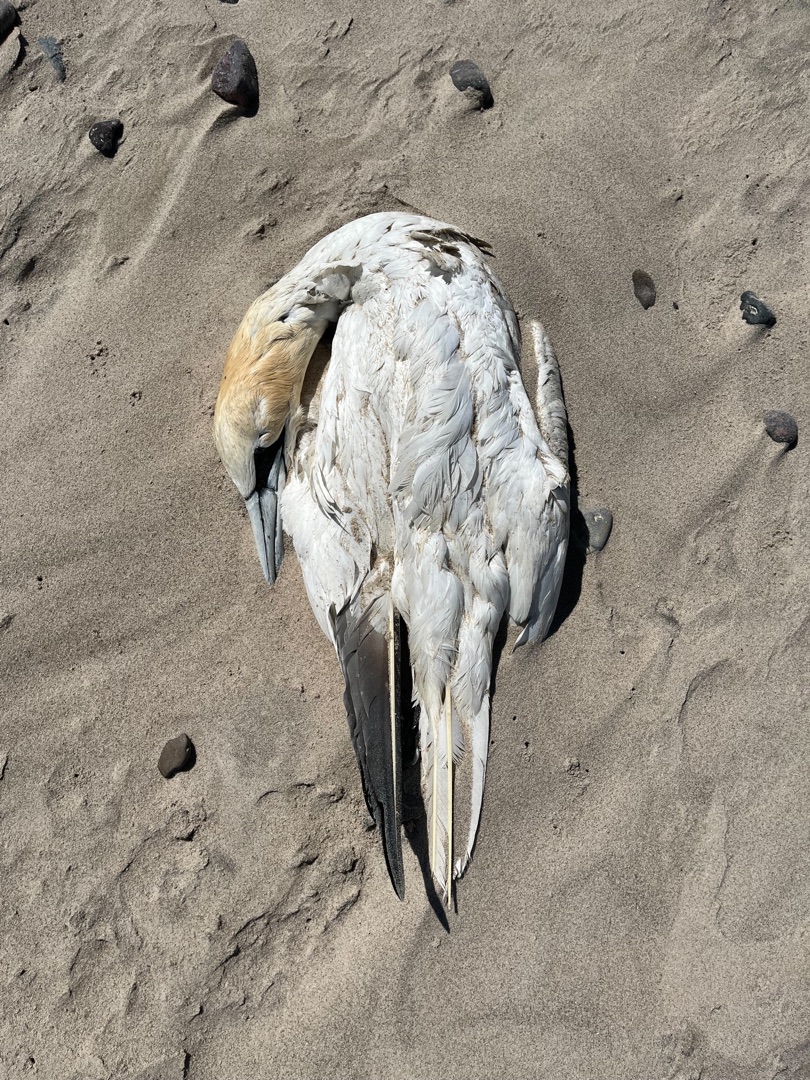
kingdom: Animalia
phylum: Chordata
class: Aves
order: Suliformes
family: Sulidae
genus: Morus
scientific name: Morus bassanus
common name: Sule
